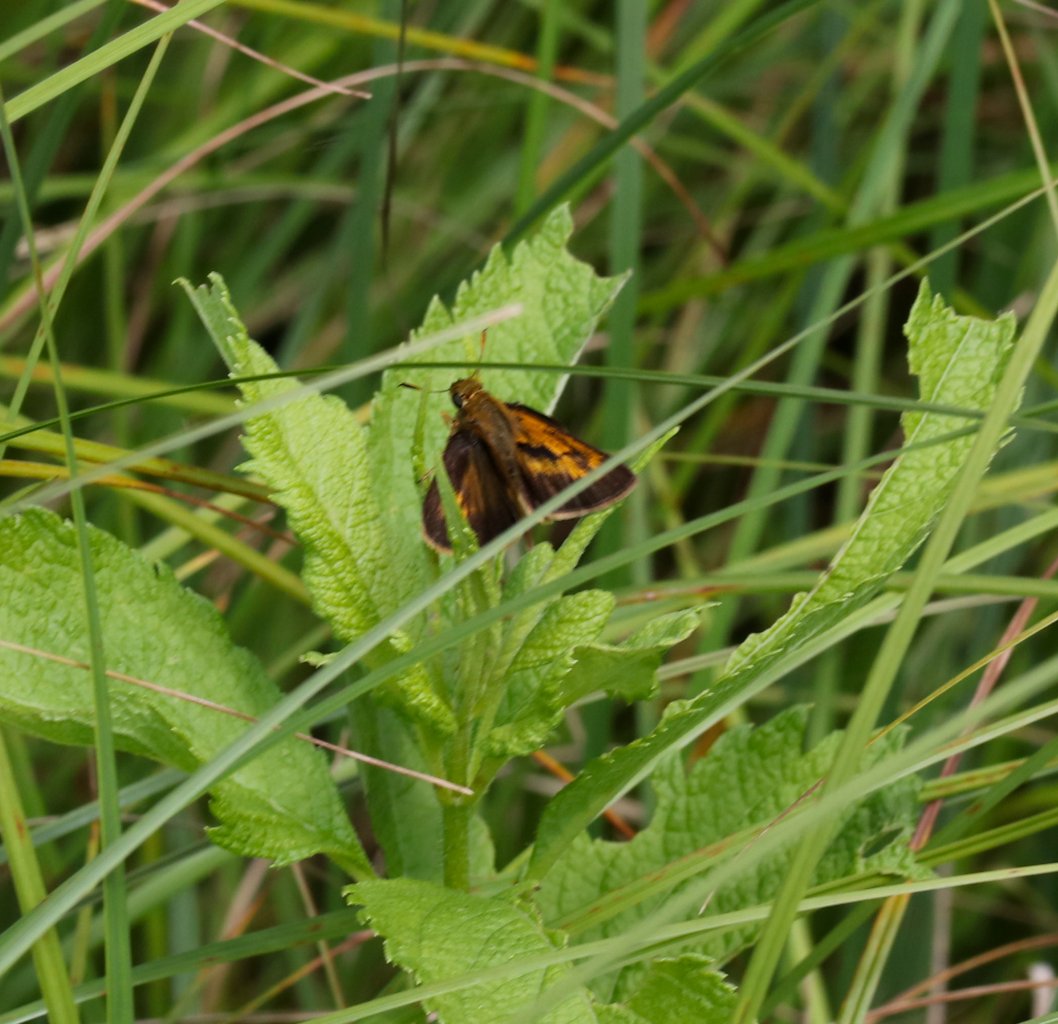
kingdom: Animalia
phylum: Arthropoda
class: Insecta
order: Lepidoptera
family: Hesperiidae
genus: Polites
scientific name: Polites
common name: Long Dash Skipper
